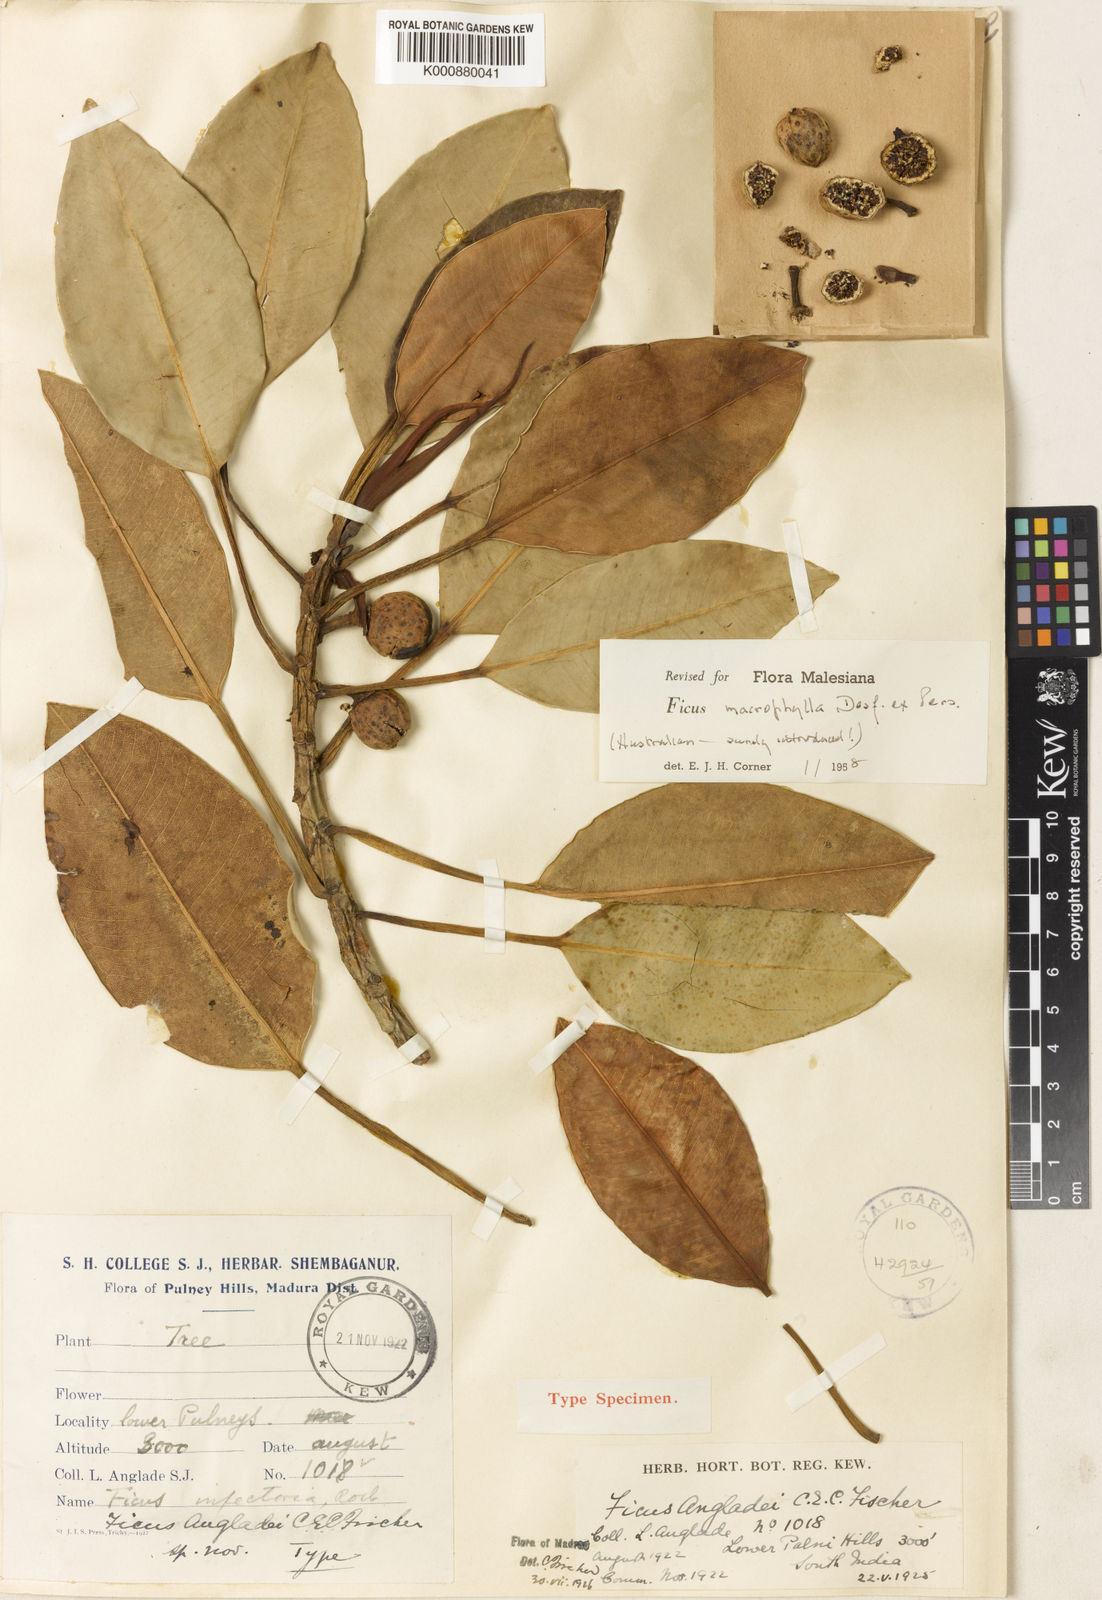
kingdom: Plantae
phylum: Tracheophyta
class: Magnoliopsida
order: Rosales
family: Moraceae
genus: Ficus
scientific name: Ficus macrophylla
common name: Moreton bay fig
